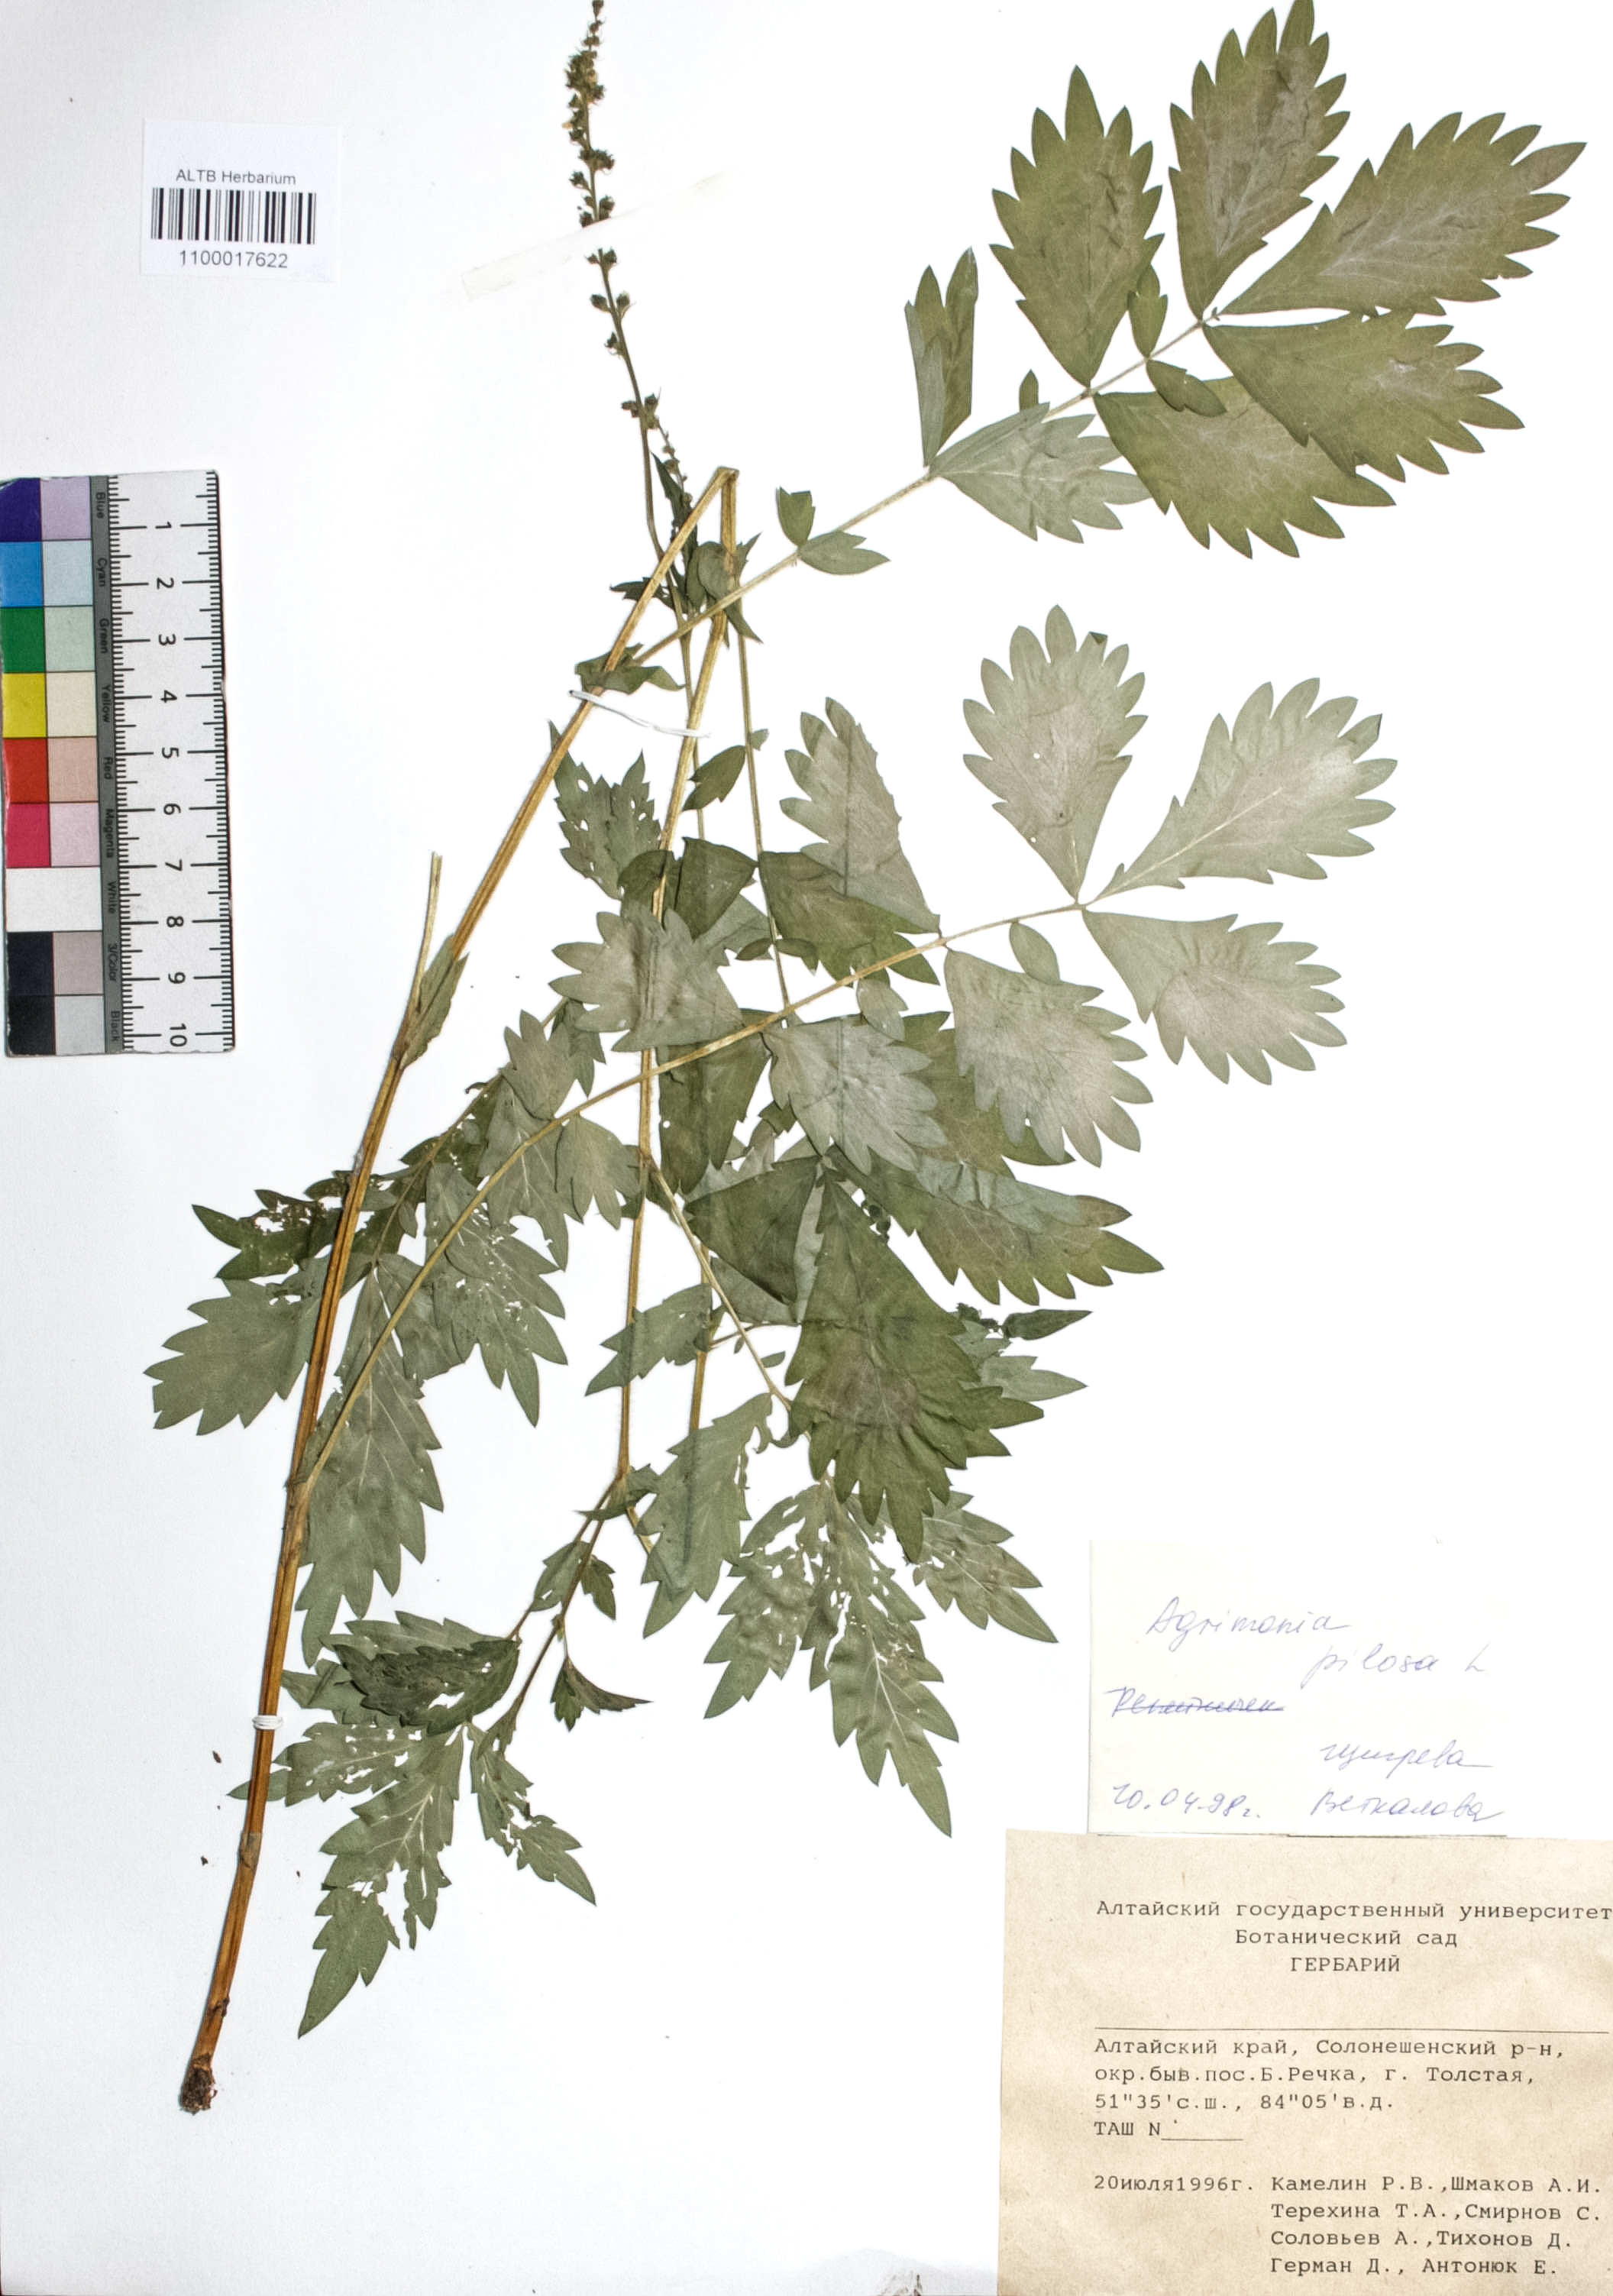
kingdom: Plantae
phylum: Tracheophyta
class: Magnoliopsida
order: Rosales
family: Rosaceae
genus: Agrimonia
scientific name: Agrimonia pilosa
